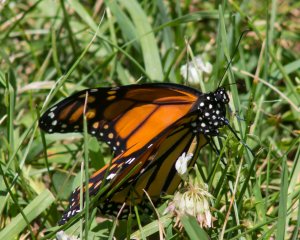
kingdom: Animalia
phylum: Arthropoda
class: Insecta
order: Lepidoptera
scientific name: Lepidoptera
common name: Butterflies
